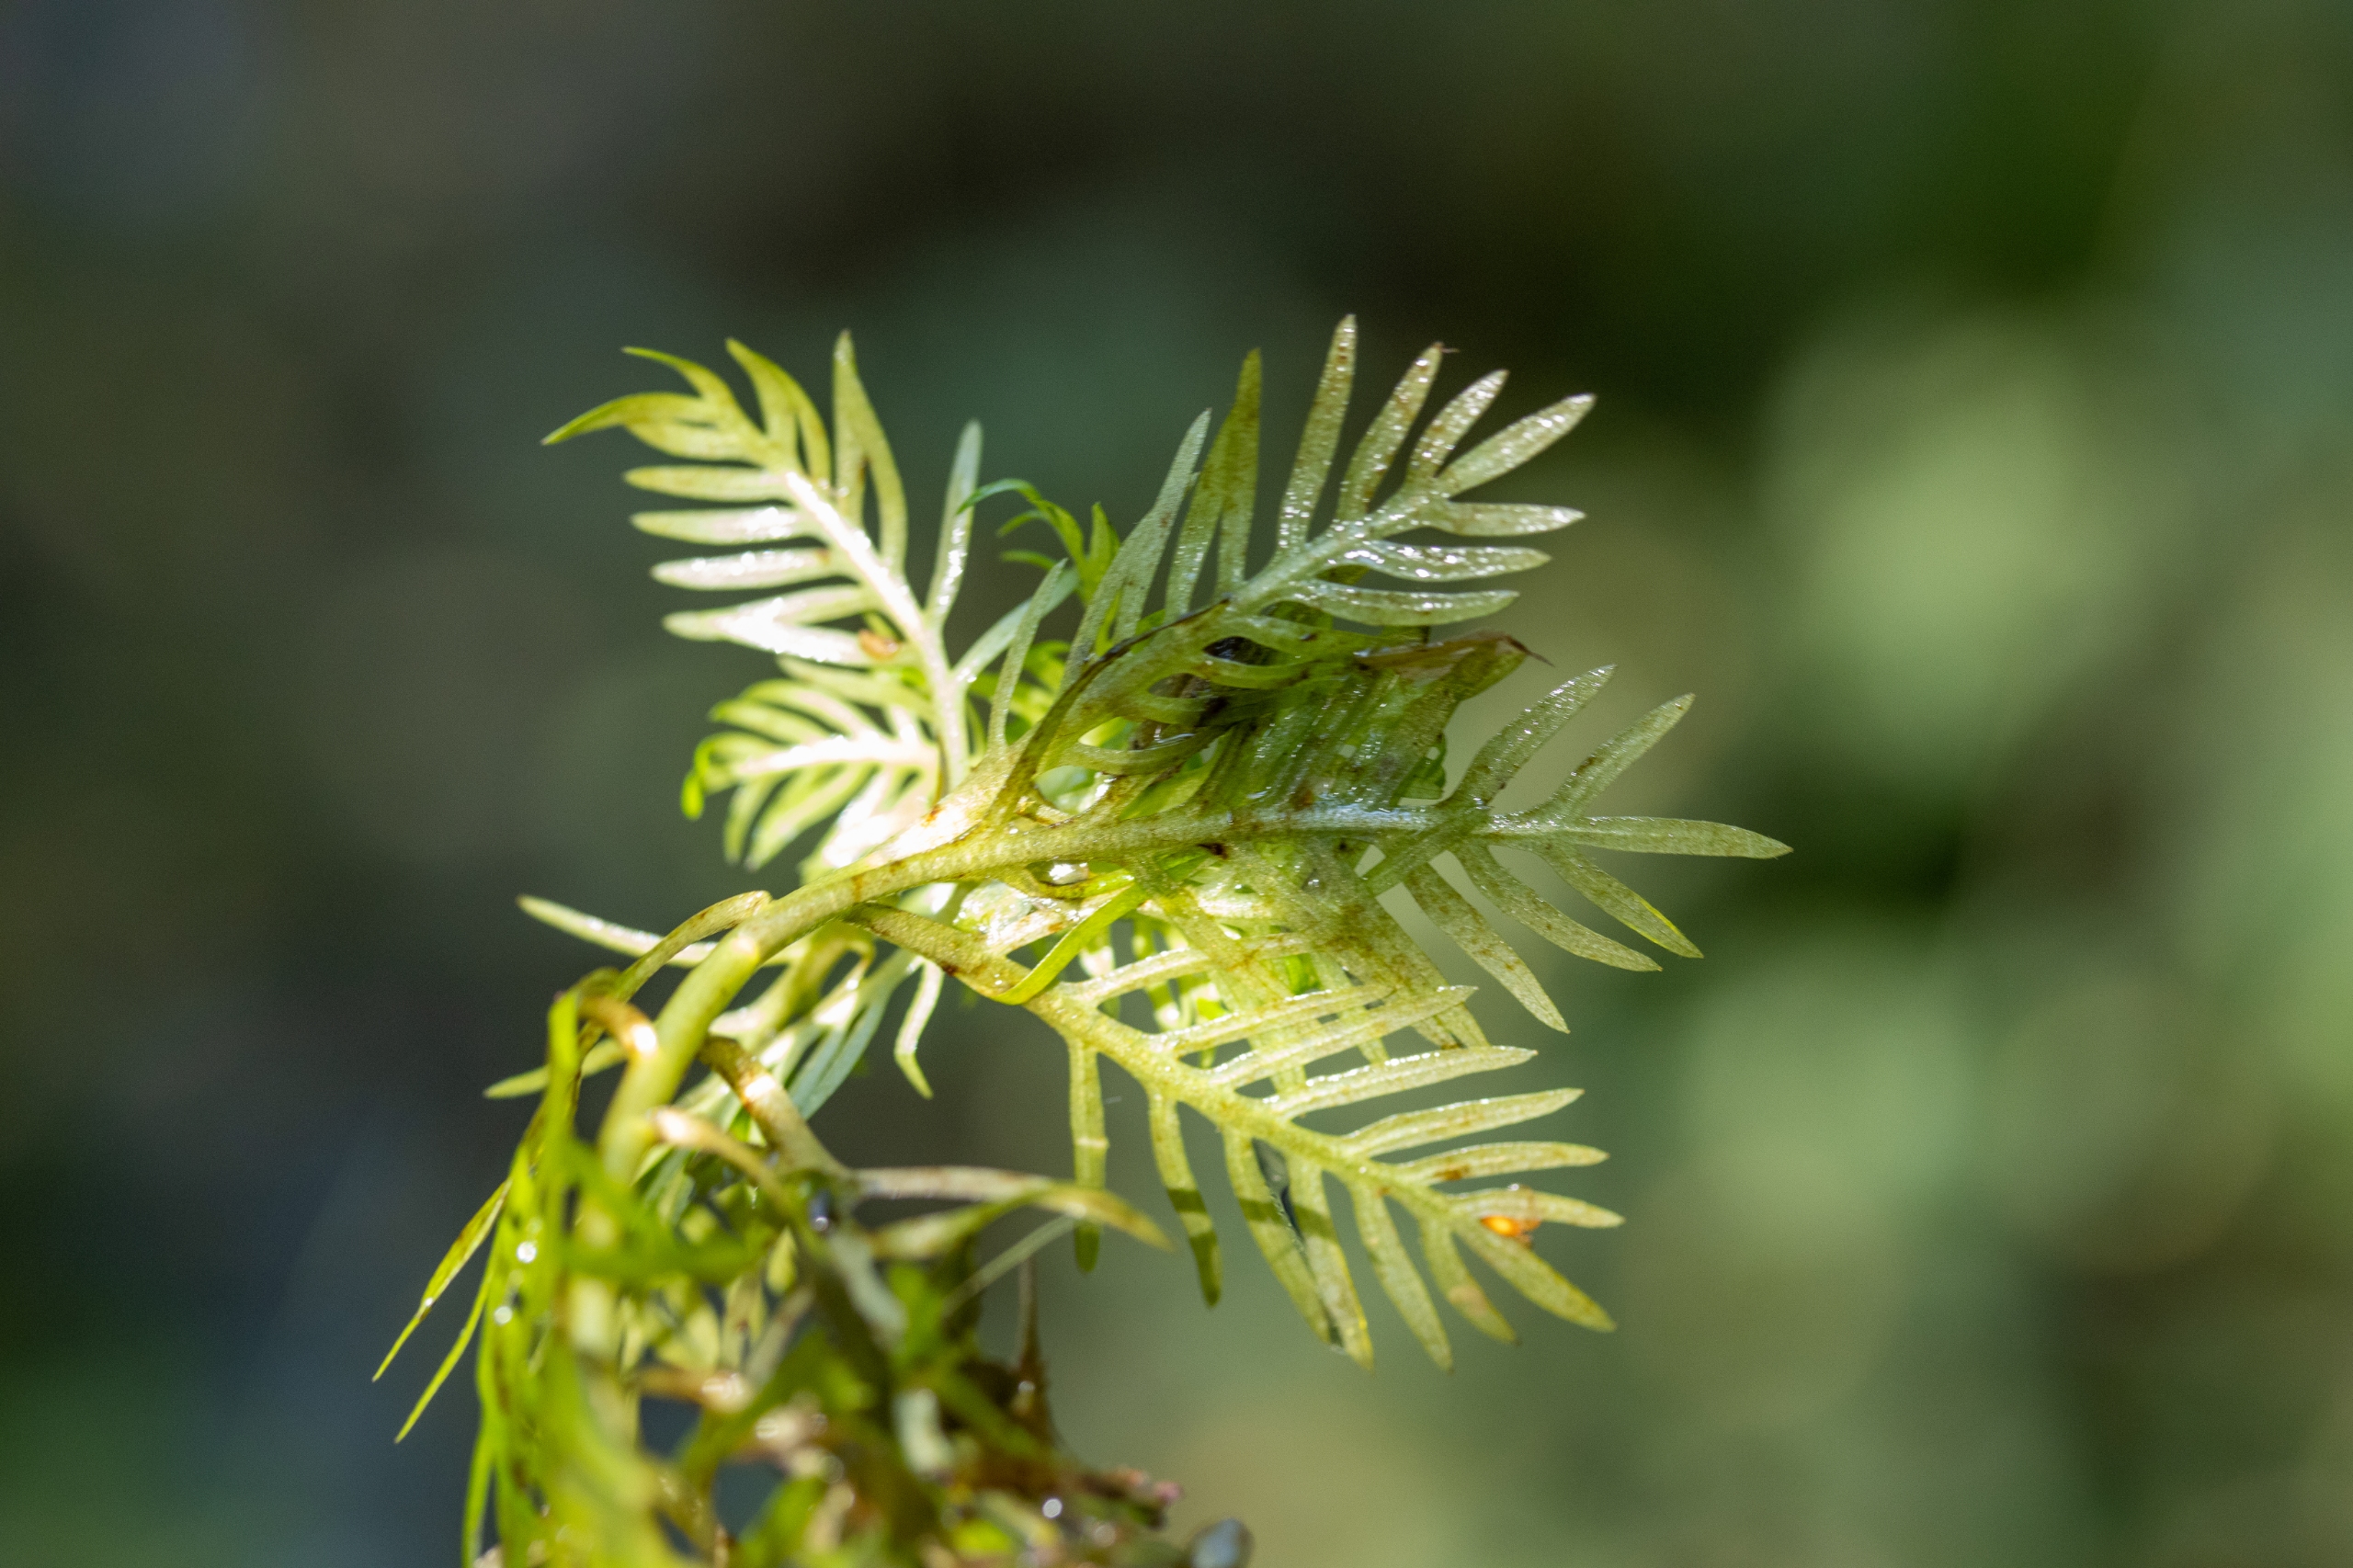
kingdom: Plantae
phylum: Tracheophyta
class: Magnoliopsida
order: Ericales
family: Primulaceae
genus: Hottonia
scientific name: Hottonia palustris
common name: Vandrøllike
